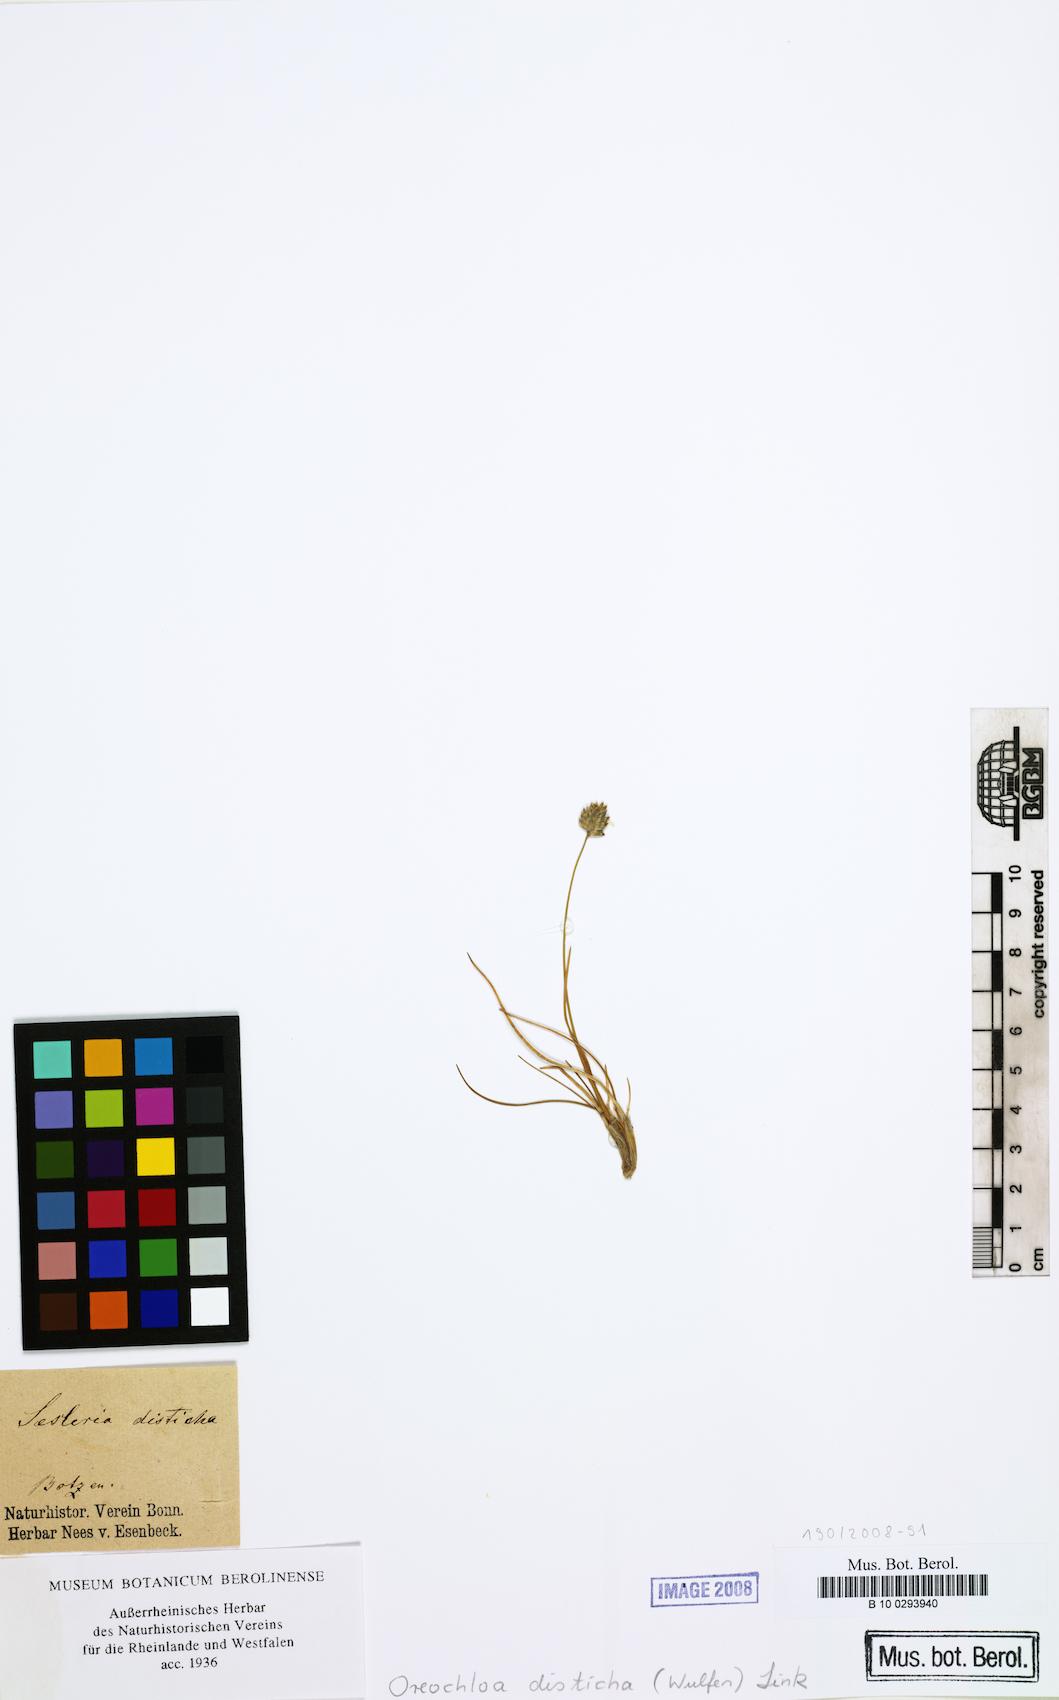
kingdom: Plantae
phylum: Tracheophyta
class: Liliopsida
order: Poales
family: Poaceae
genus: Oreochloa
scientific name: Oreochloa disticha
